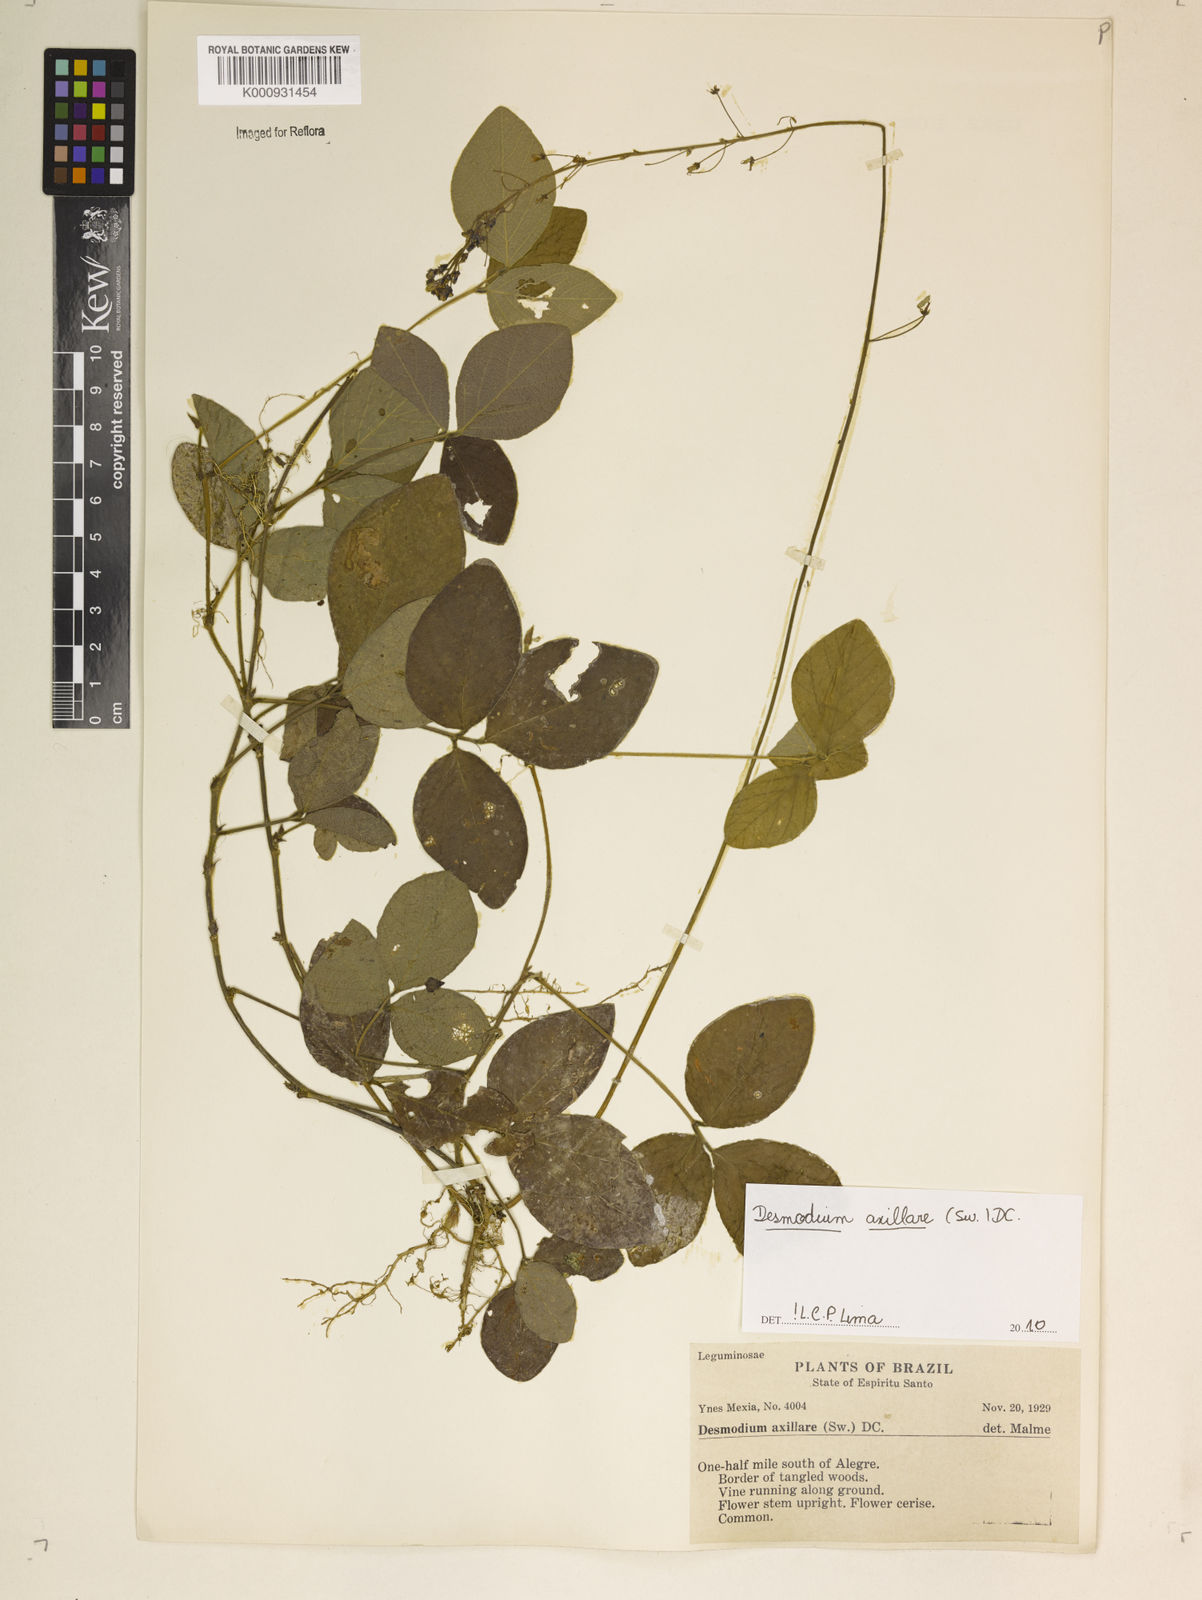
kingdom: Plantae
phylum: Tracheophyta
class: Magnoliopsida
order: Fabales
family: Fabaceae
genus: Desmodium
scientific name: Desmodium axillare
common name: Wire with
